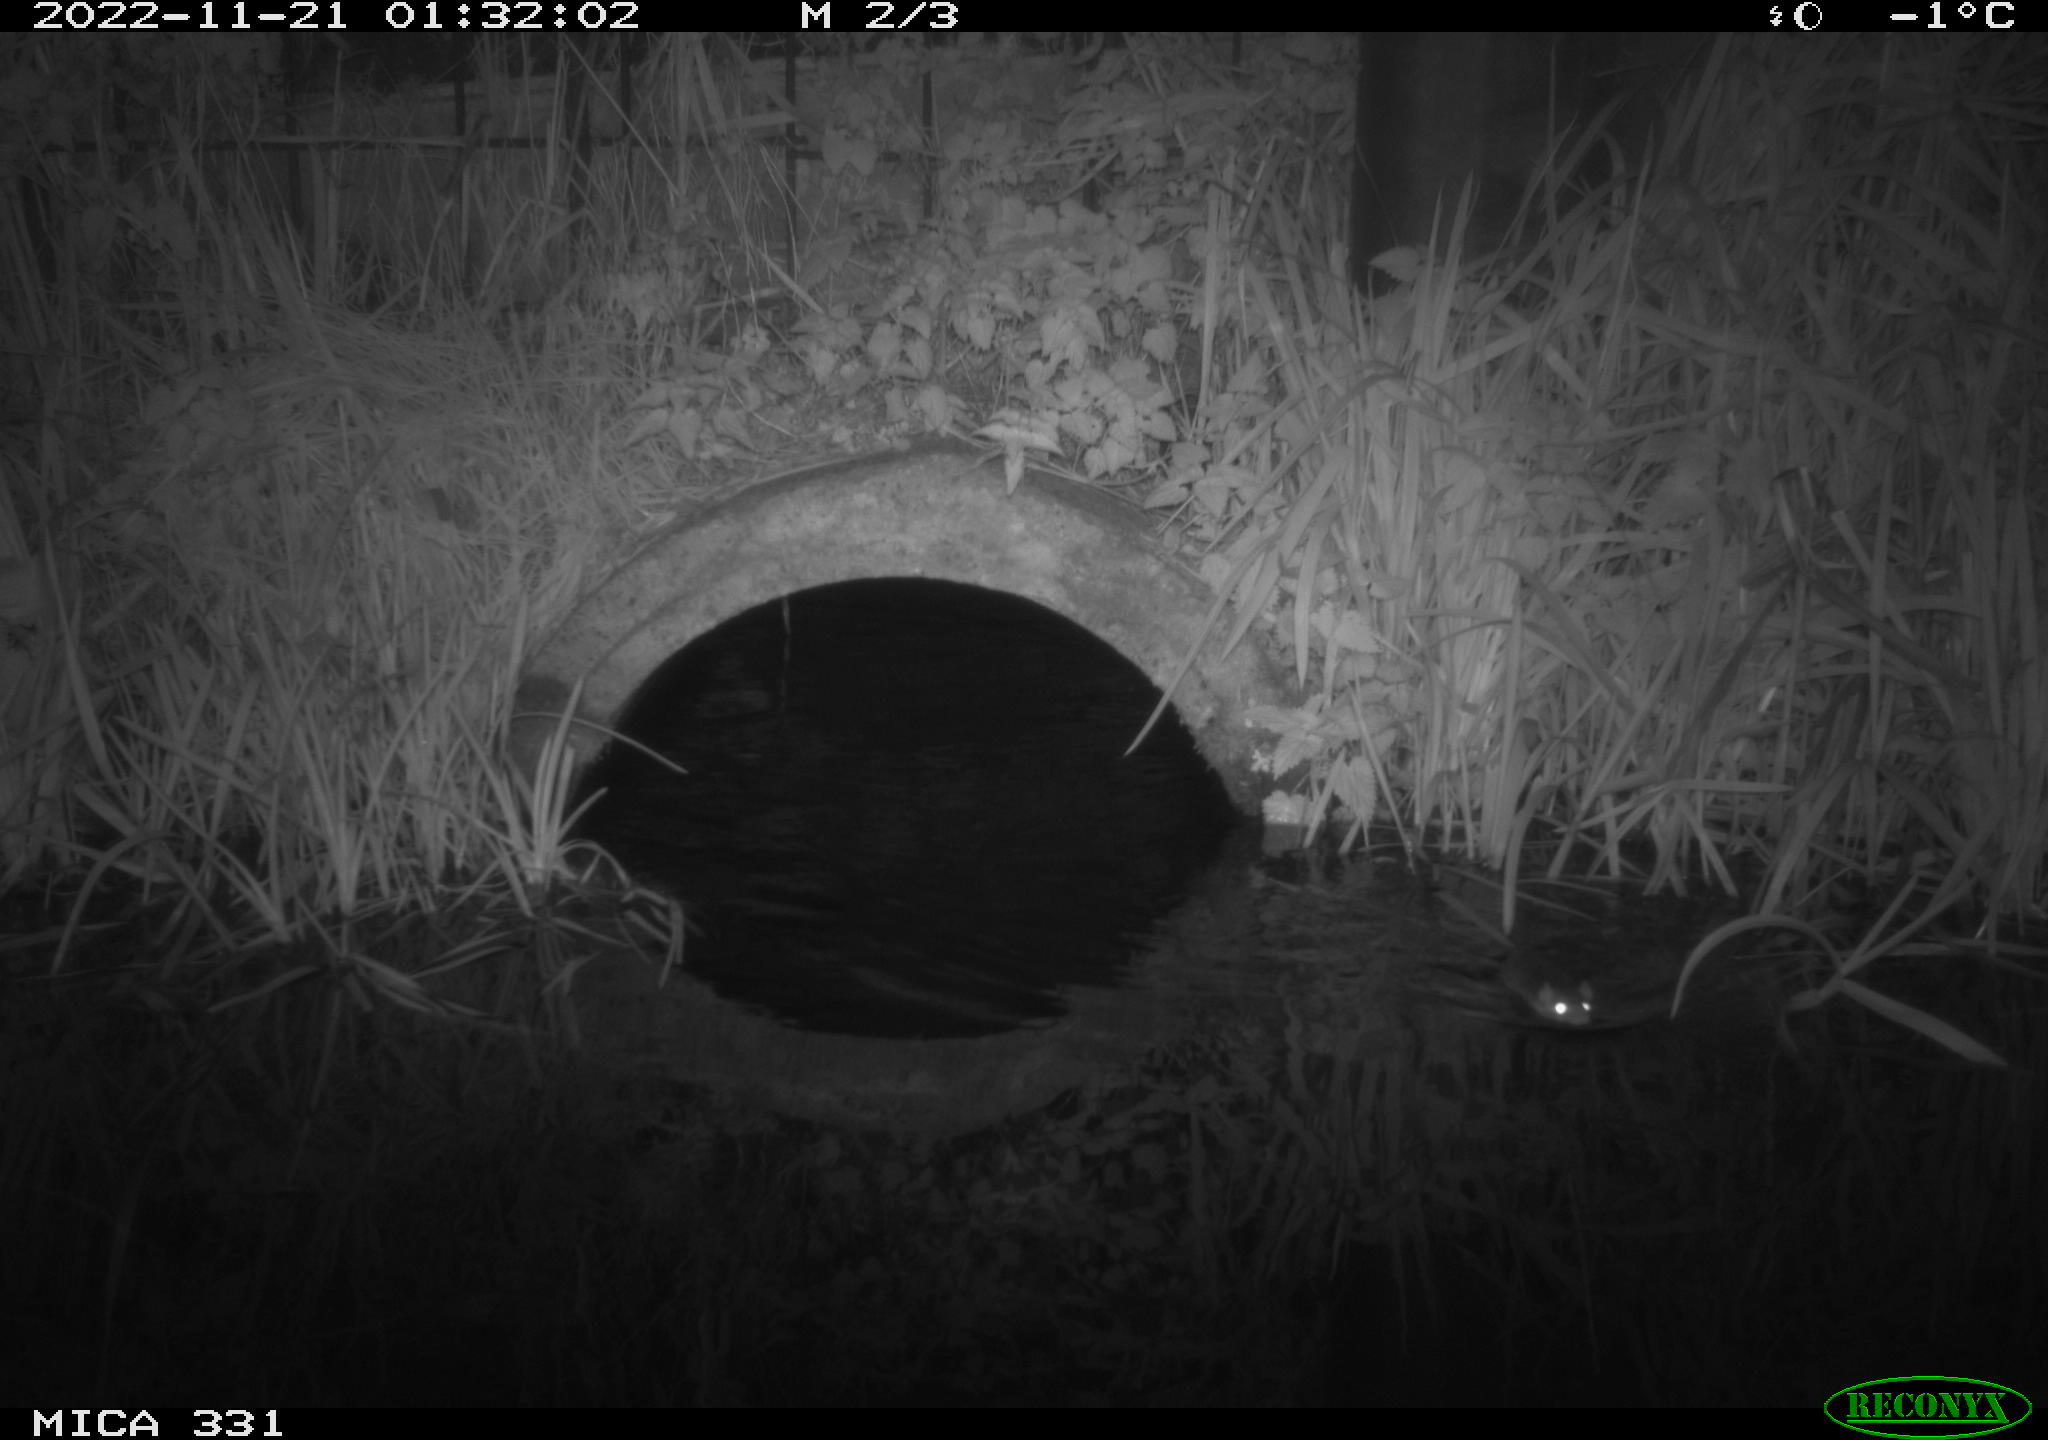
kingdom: Animalia
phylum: Chordata
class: Mammalia
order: Rodentia
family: Muridae
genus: Rattus
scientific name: Rattus norvegicus
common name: Brown rat
